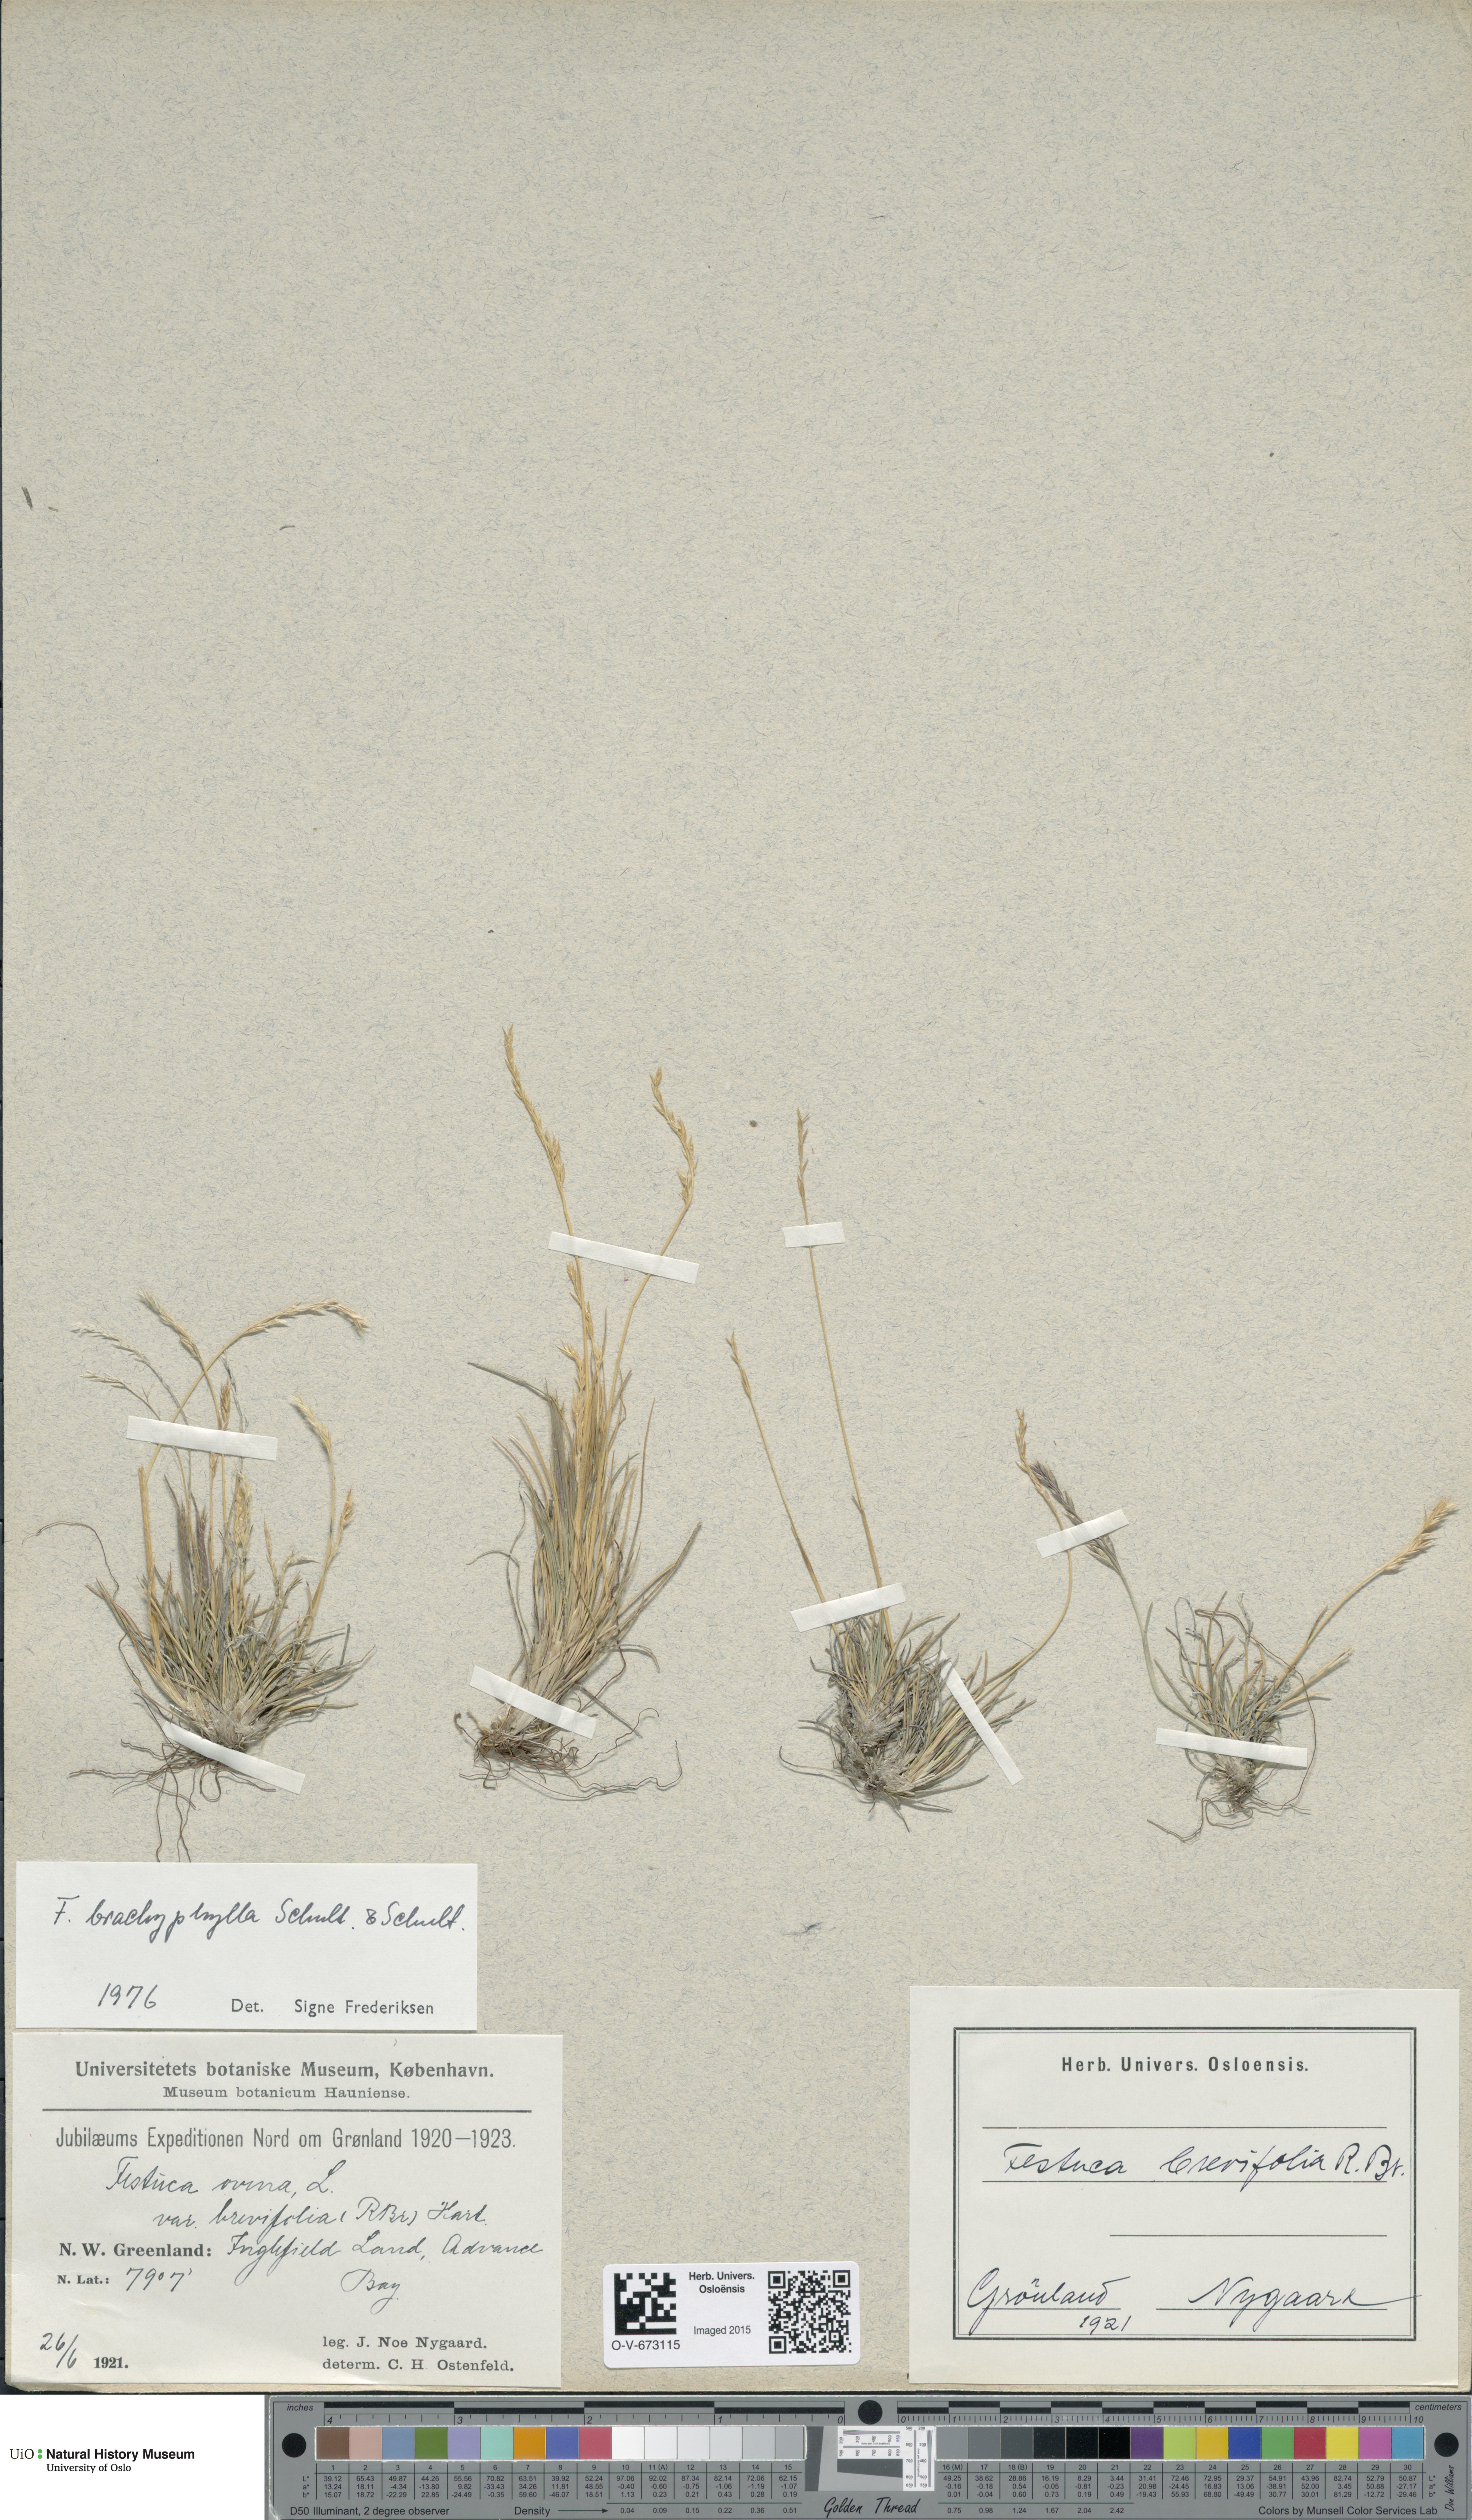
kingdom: Plantae
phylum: Tracheophyta
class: Liliopsida
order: Poales
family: Poaceae
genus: Festuca
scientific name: Festuca brachyphylla
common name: Alpine fescue
